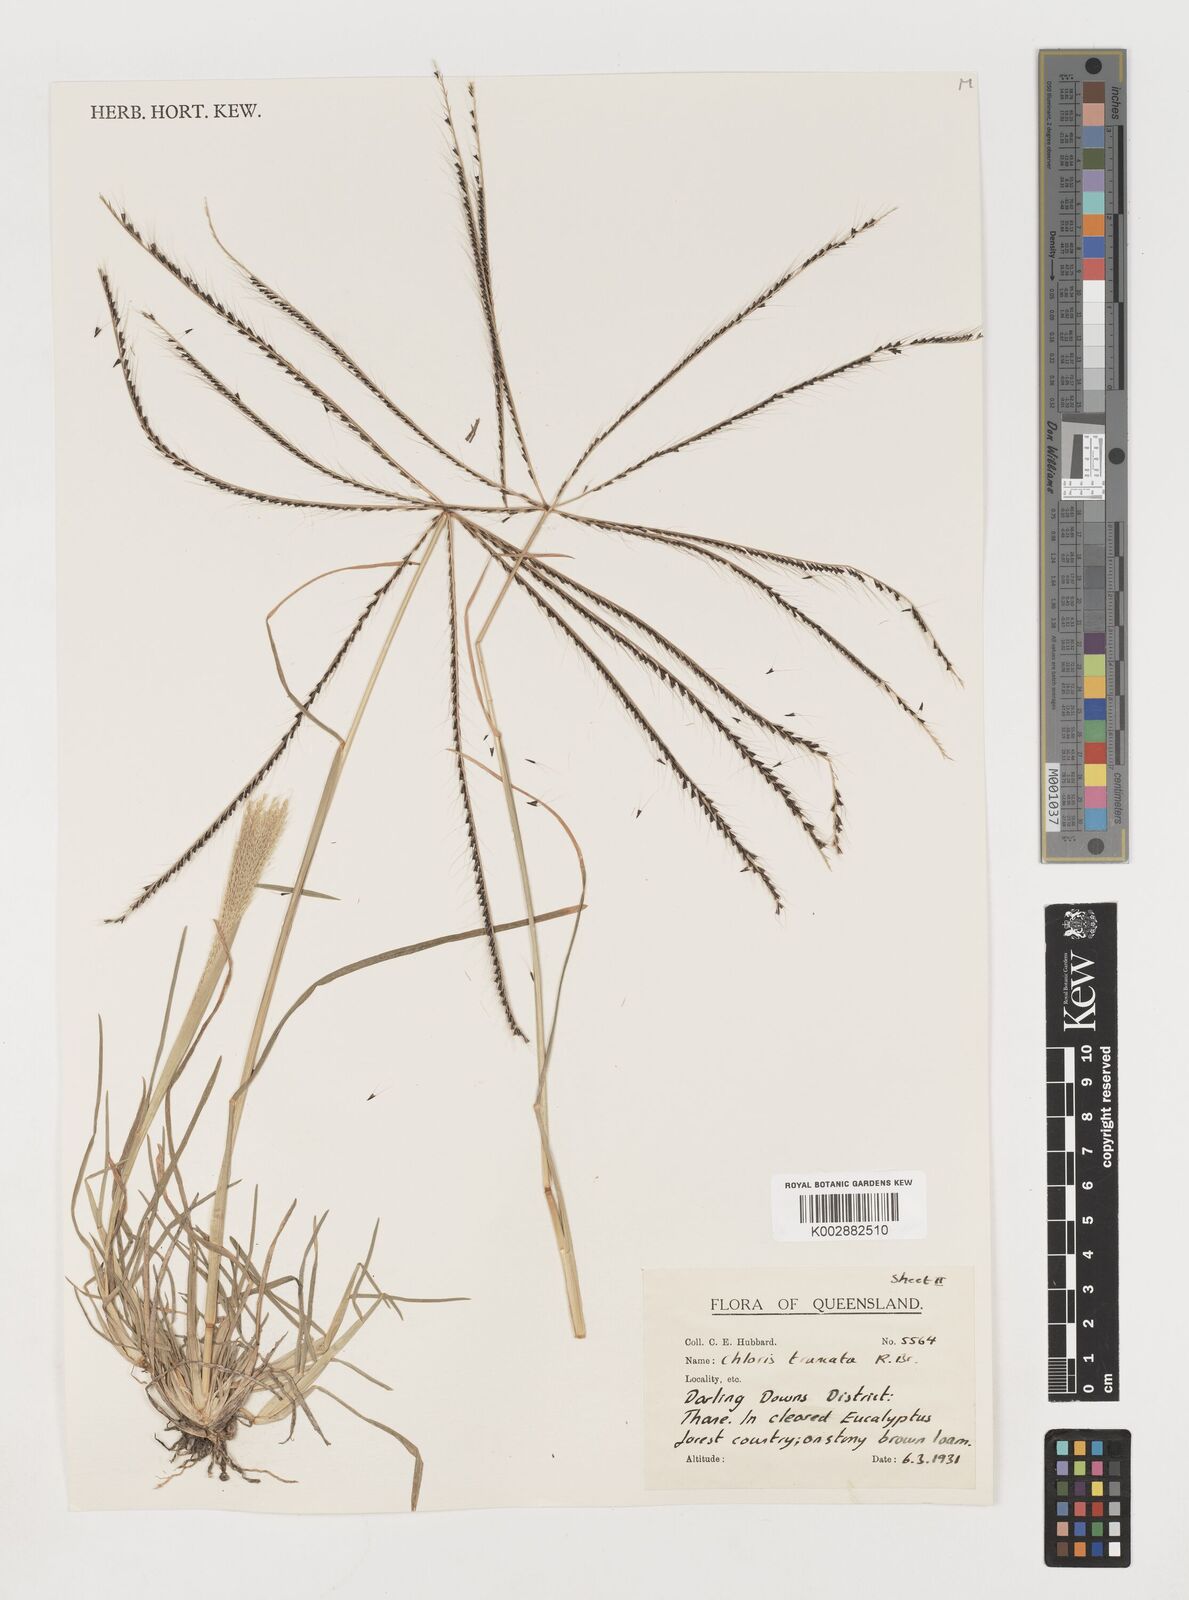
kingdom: Plantae
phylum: Tracheophyta
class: Liliopsida
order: Poales
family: Poaceae
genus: Chloris
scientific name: Chloris truncata
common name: Windmill-grass
